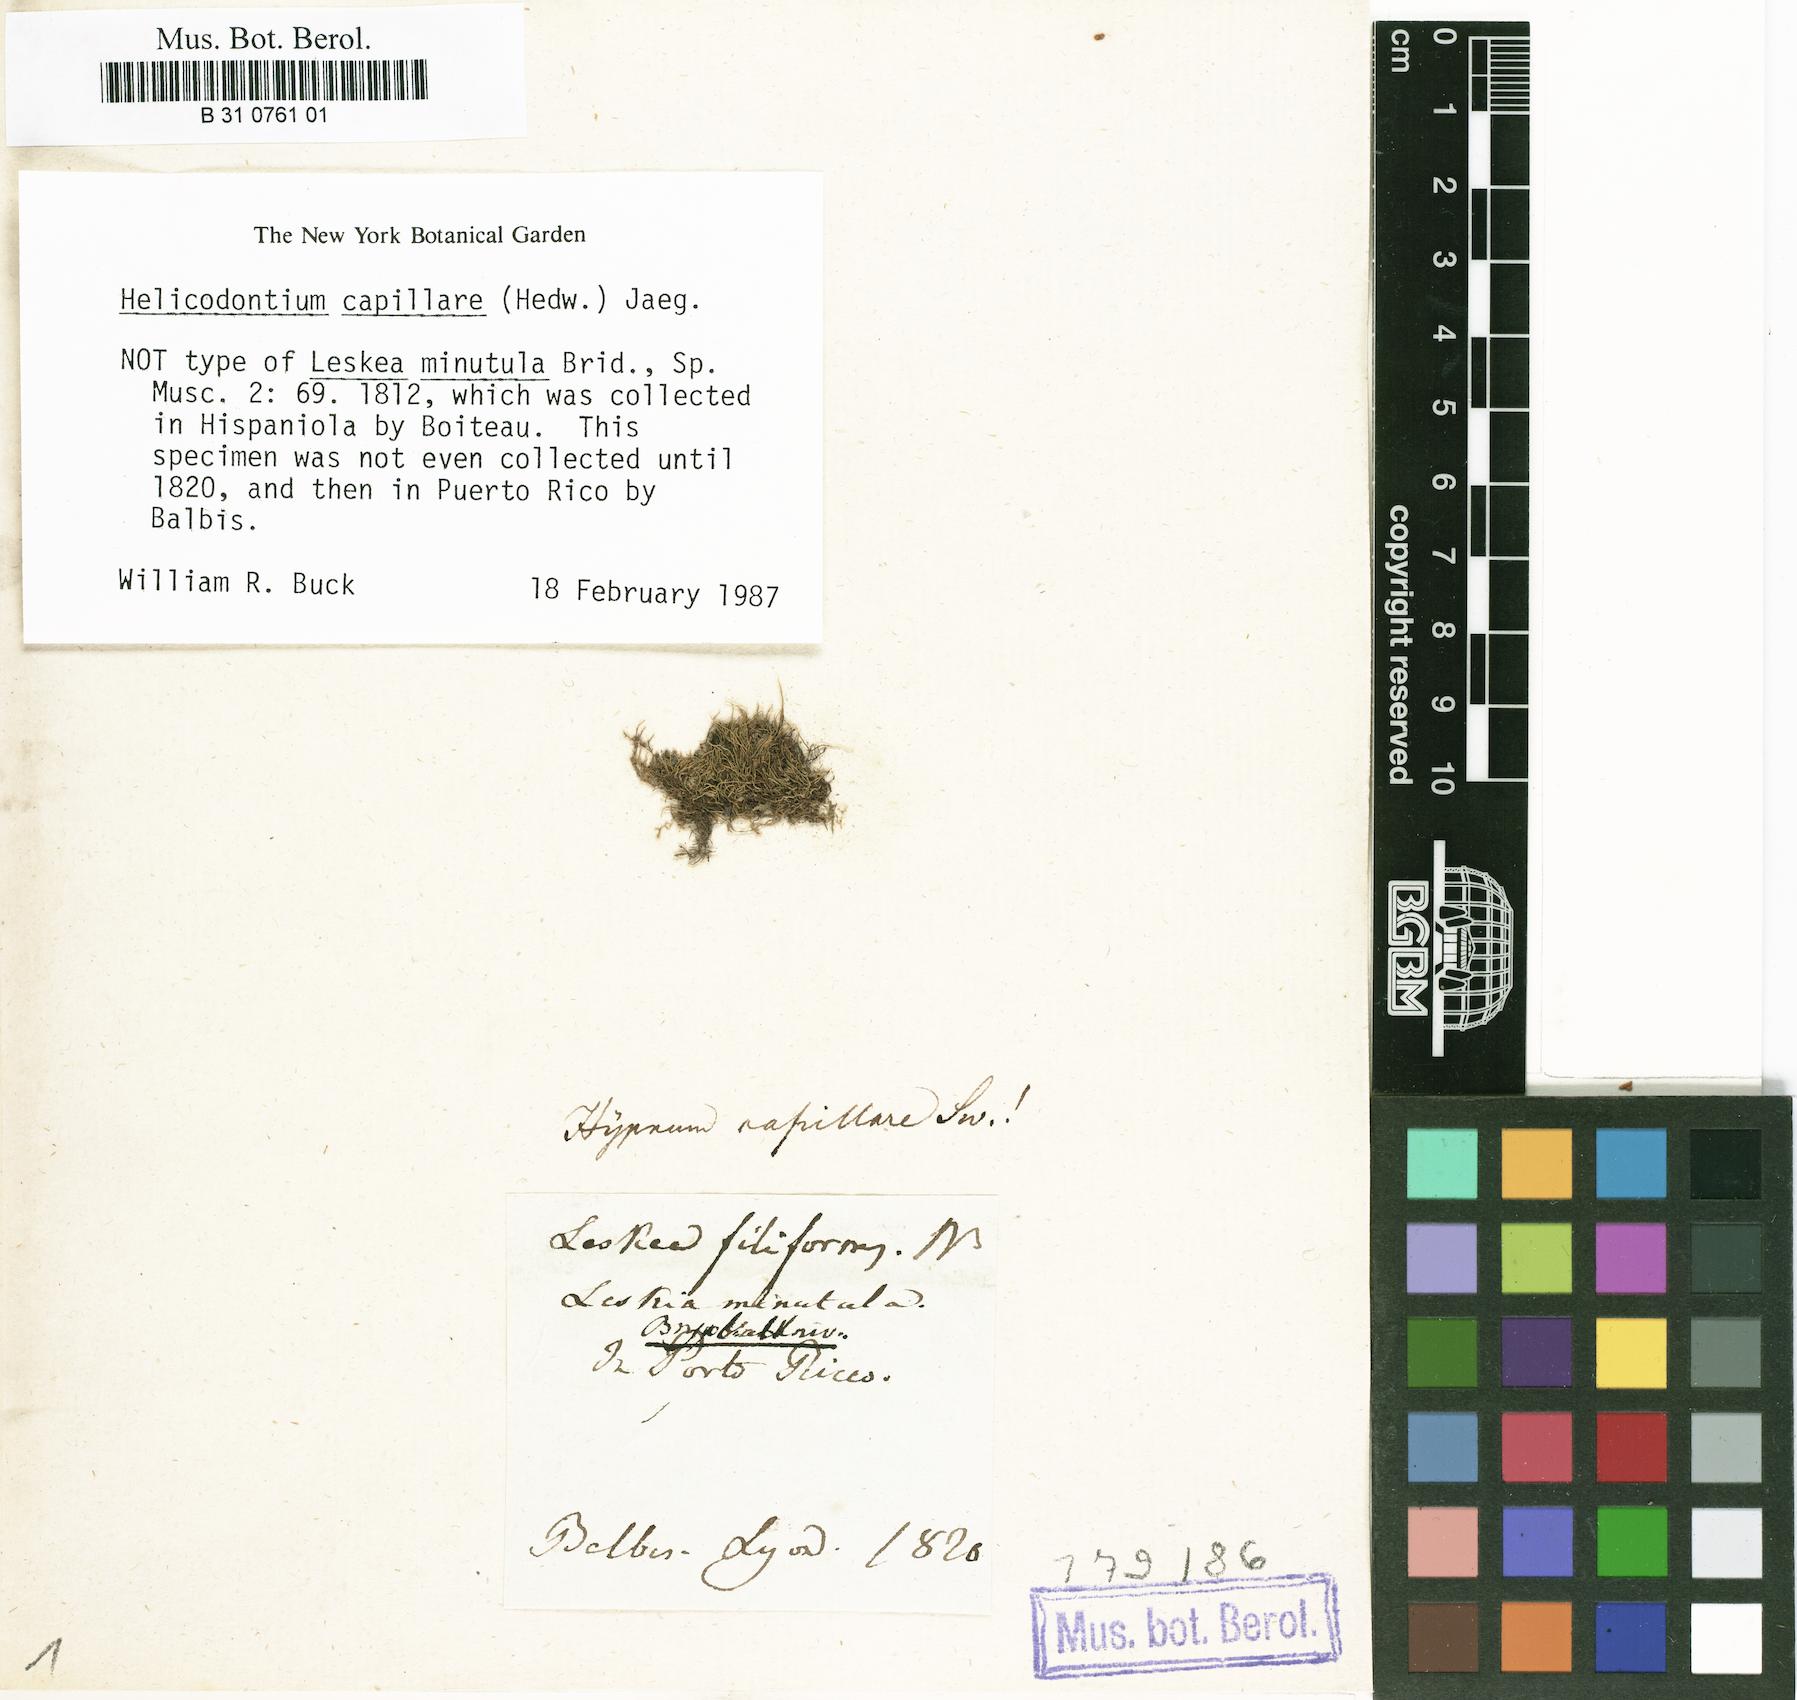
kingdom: Plantae
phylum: Bryophyta
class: Bryopsida
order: Hypnales
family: Brachytheciaceae
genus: Helicodontium
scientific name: Helicodontium capillare
